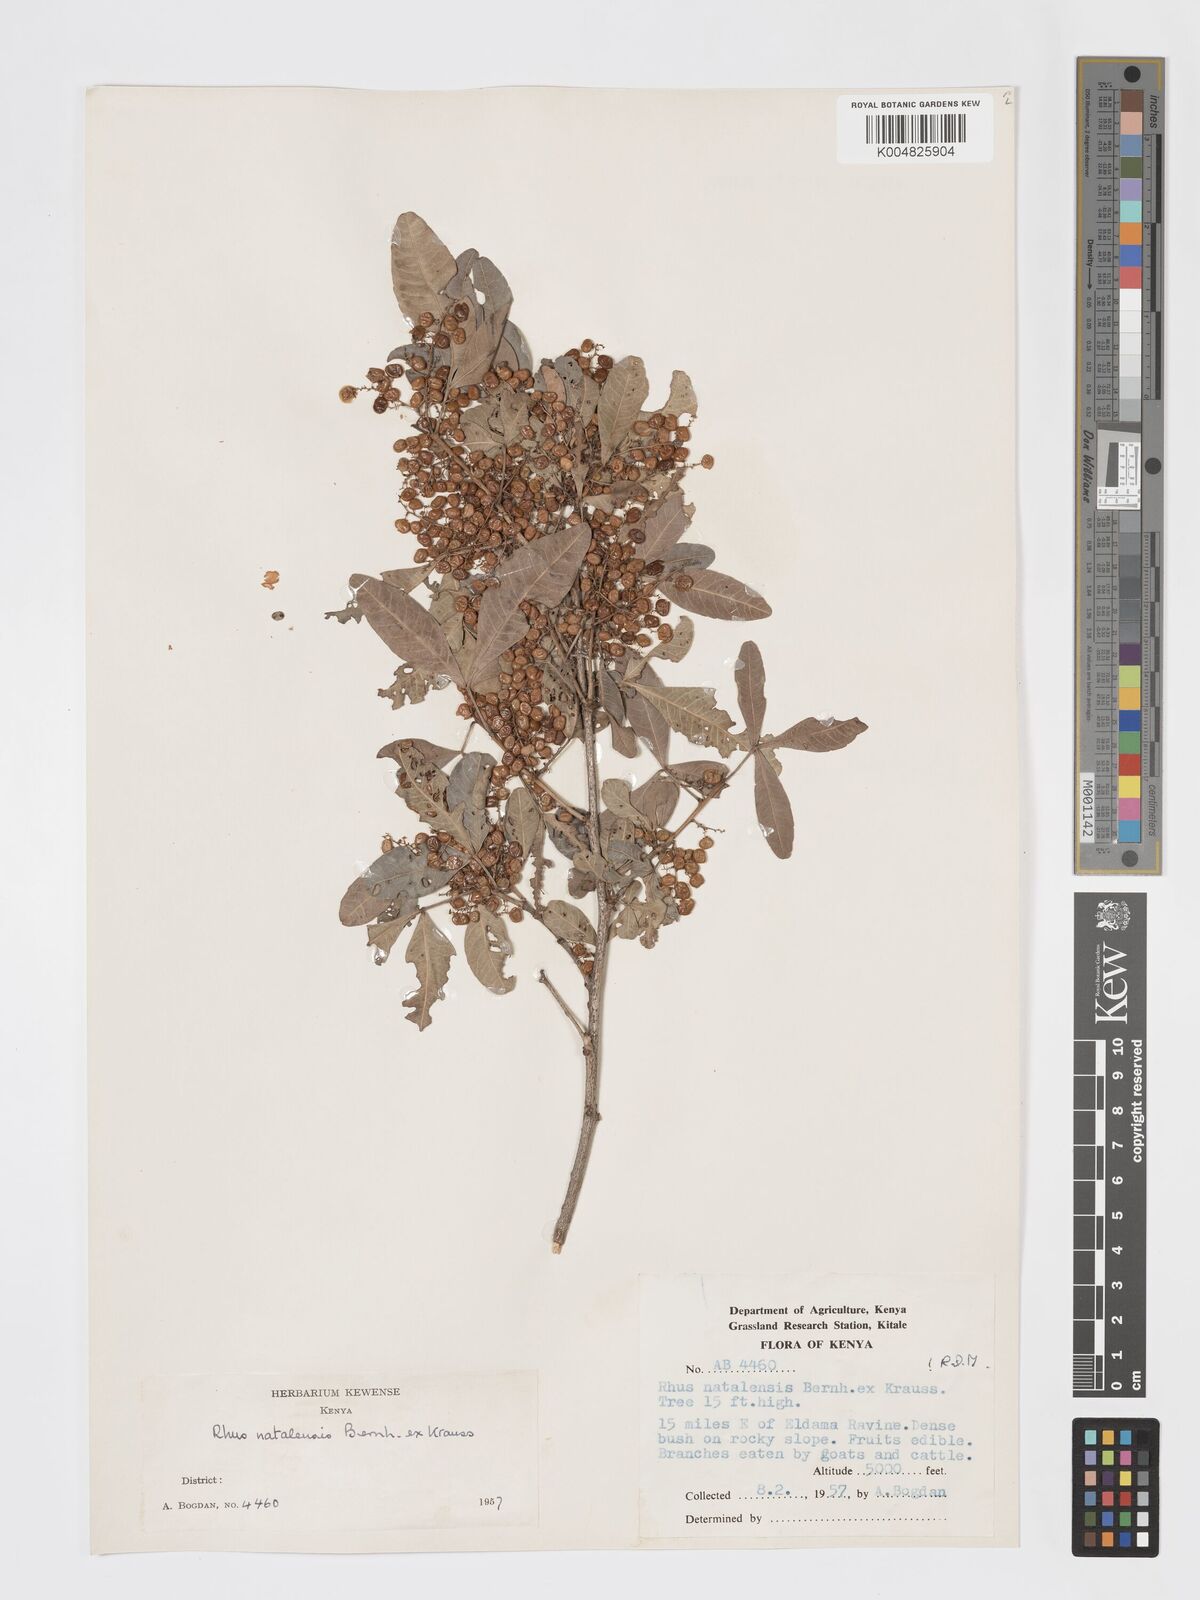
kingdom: Plantae
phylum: Tracheophyta
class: Magnoliopsida
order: Sapindales
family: Anacardiaceae
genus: Searsia
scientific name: Searsia natalensis
